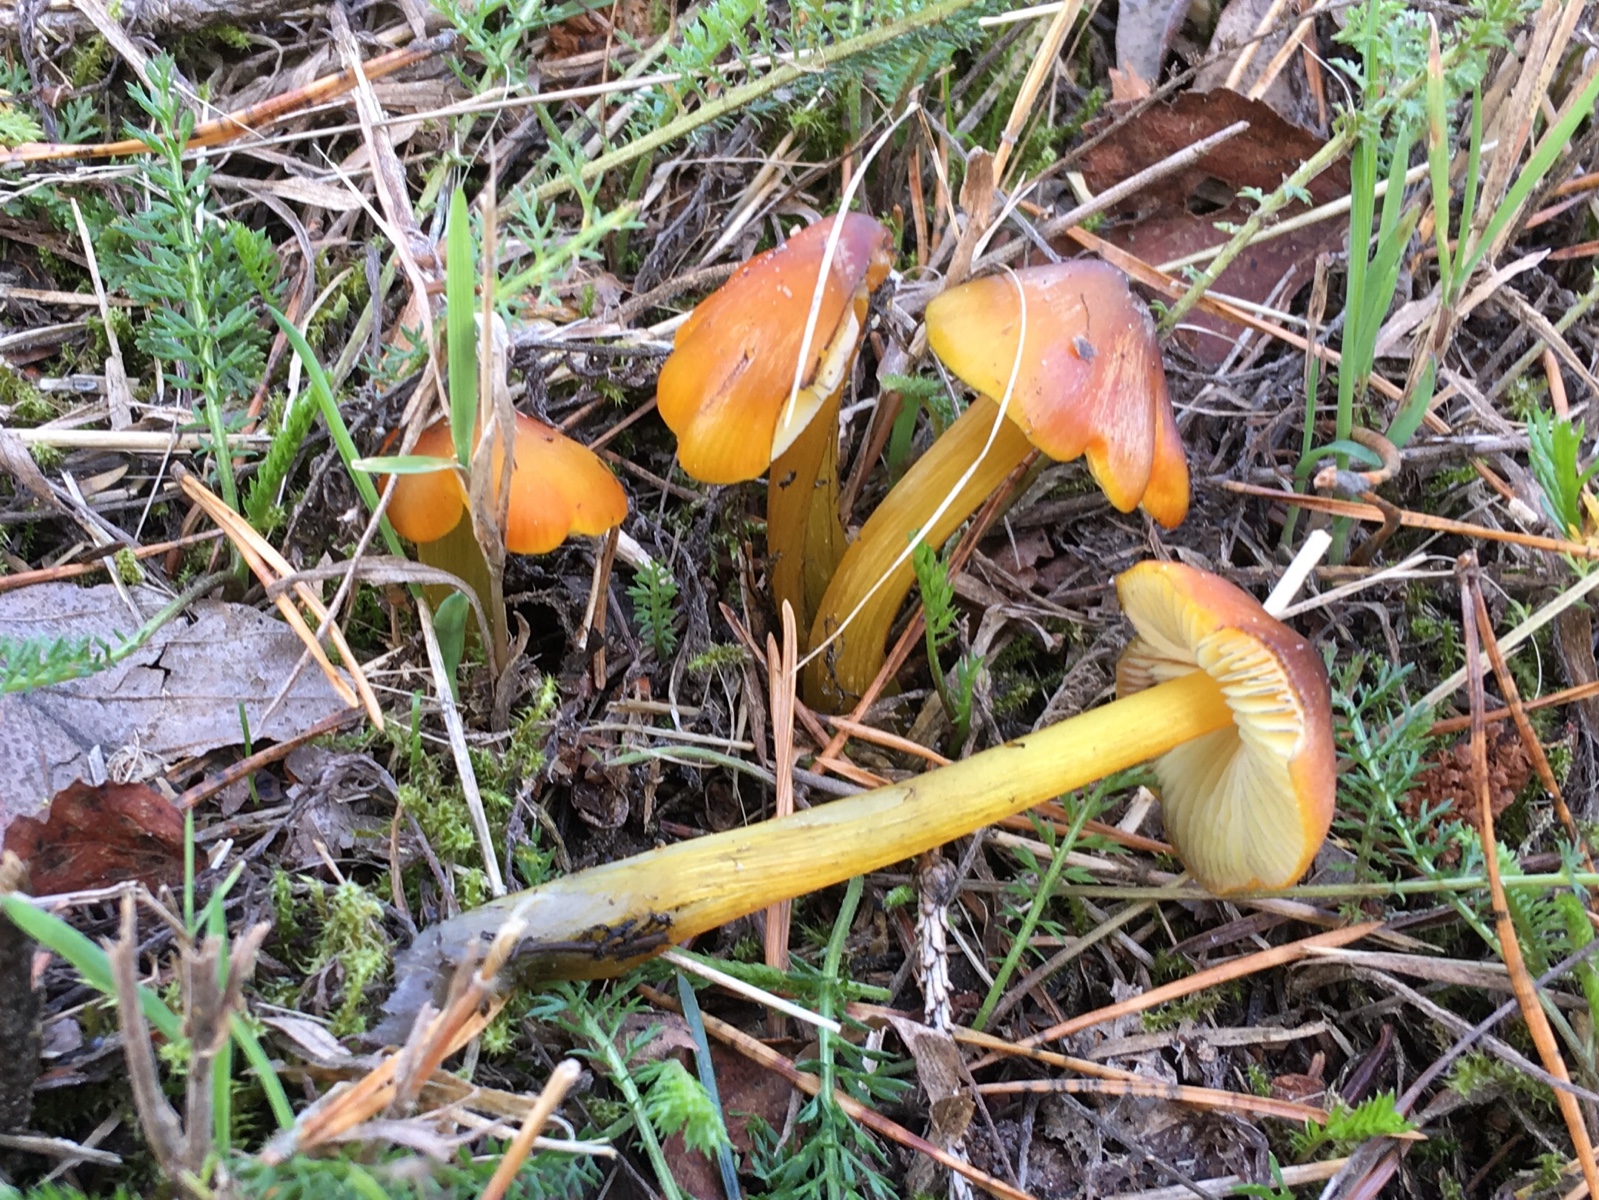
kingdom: Fungi
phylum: Basidiomycota
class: Agaricomycetes
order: Agaricales
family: Hygrophoraceae
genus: Hygrocybe
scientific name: Hygrocybe conica
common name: kegle-vokshat
